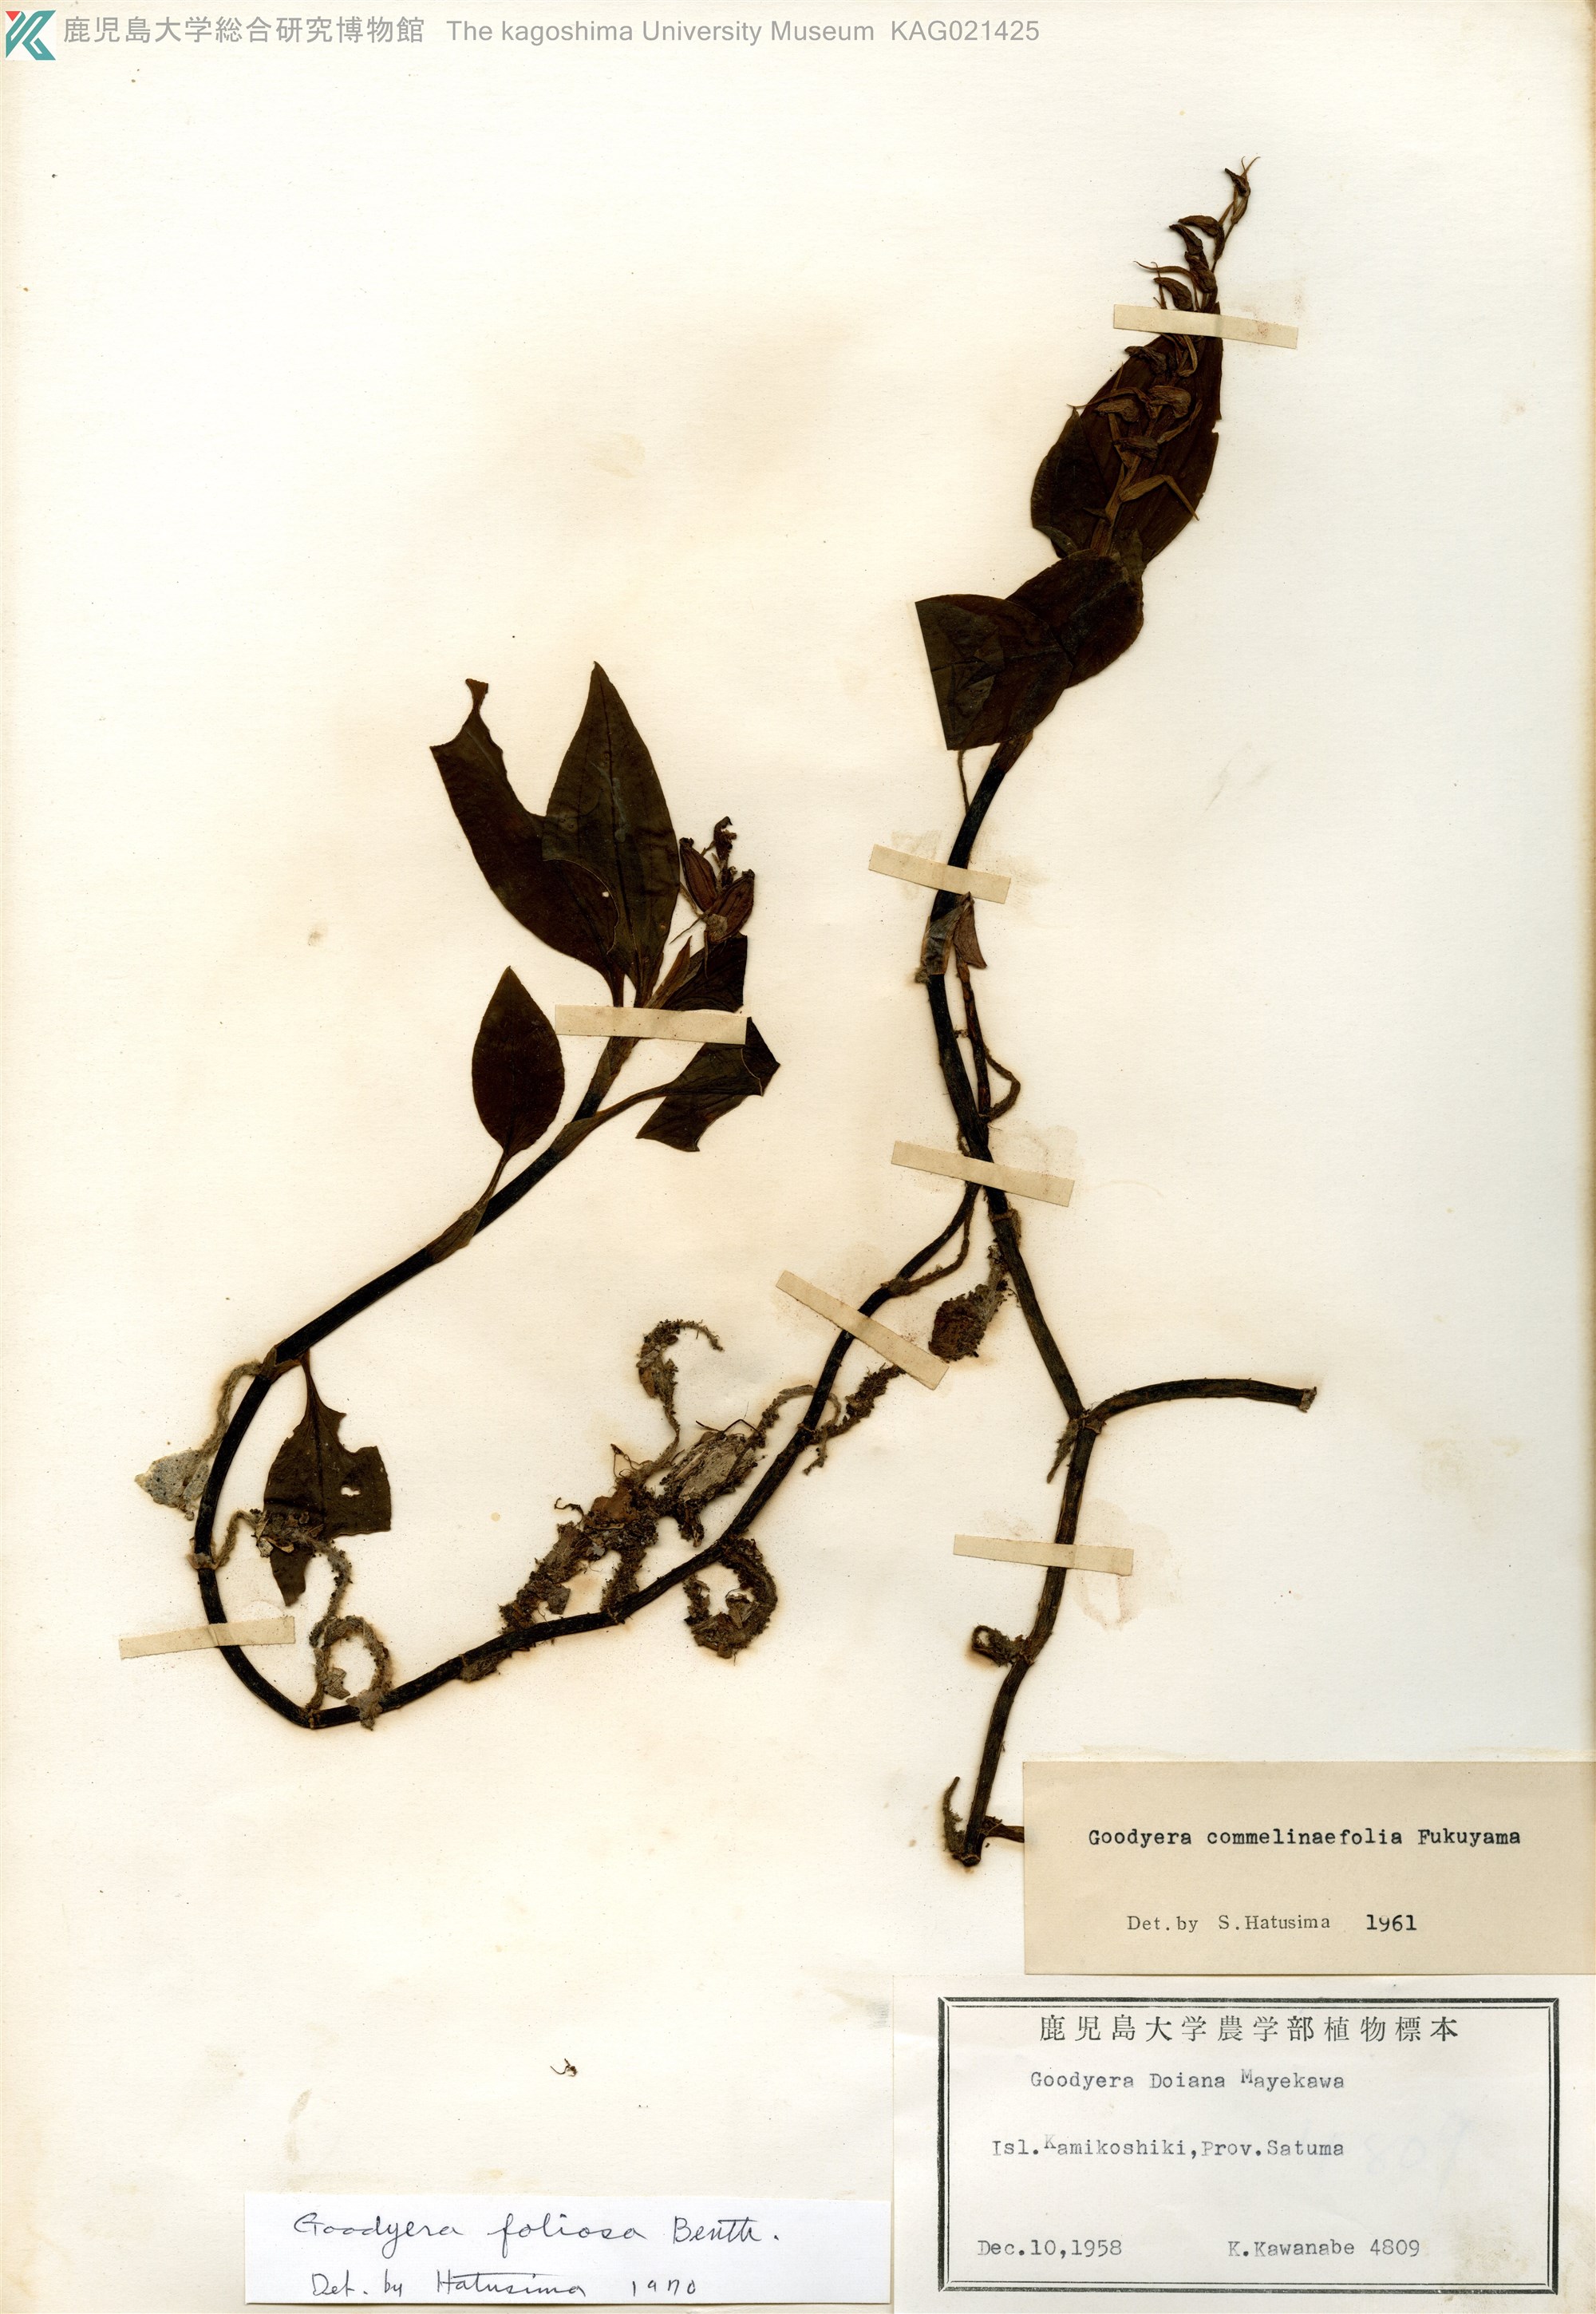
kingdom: Plantae
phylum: Tracheophyta
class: Liliopsida
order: Asparagales
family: Orchidaceae
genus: Goodyera
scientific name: Goodyera foliosa
